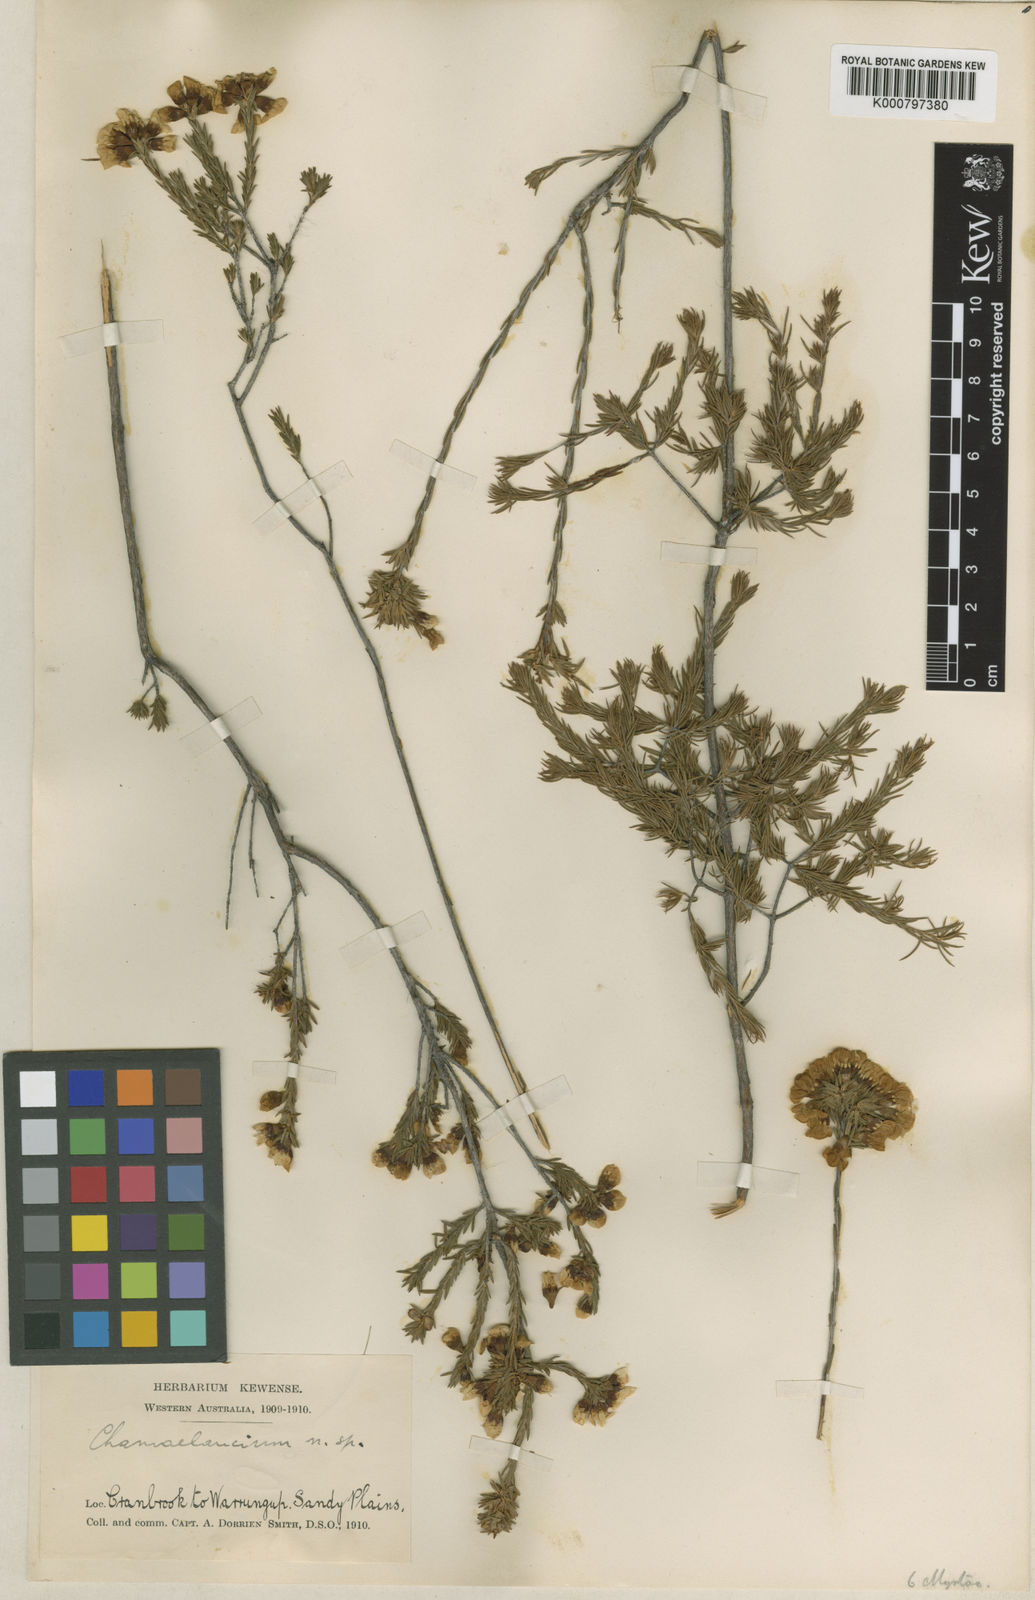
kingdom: Plantae
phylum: Tracheophyta
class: Magnoliopsida
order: Myrtales
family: Myrtaceae
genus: Chamelaucium
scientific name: Chamelaucium confertiflorum
